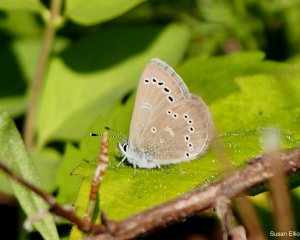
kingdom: Animalia
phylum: Arthropoda
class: Insecta
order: Lepidoptera
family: Lycaenidae
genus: Glaucopsyche
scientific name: Glaucopsyche lygdamus
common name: Silvery Blue
